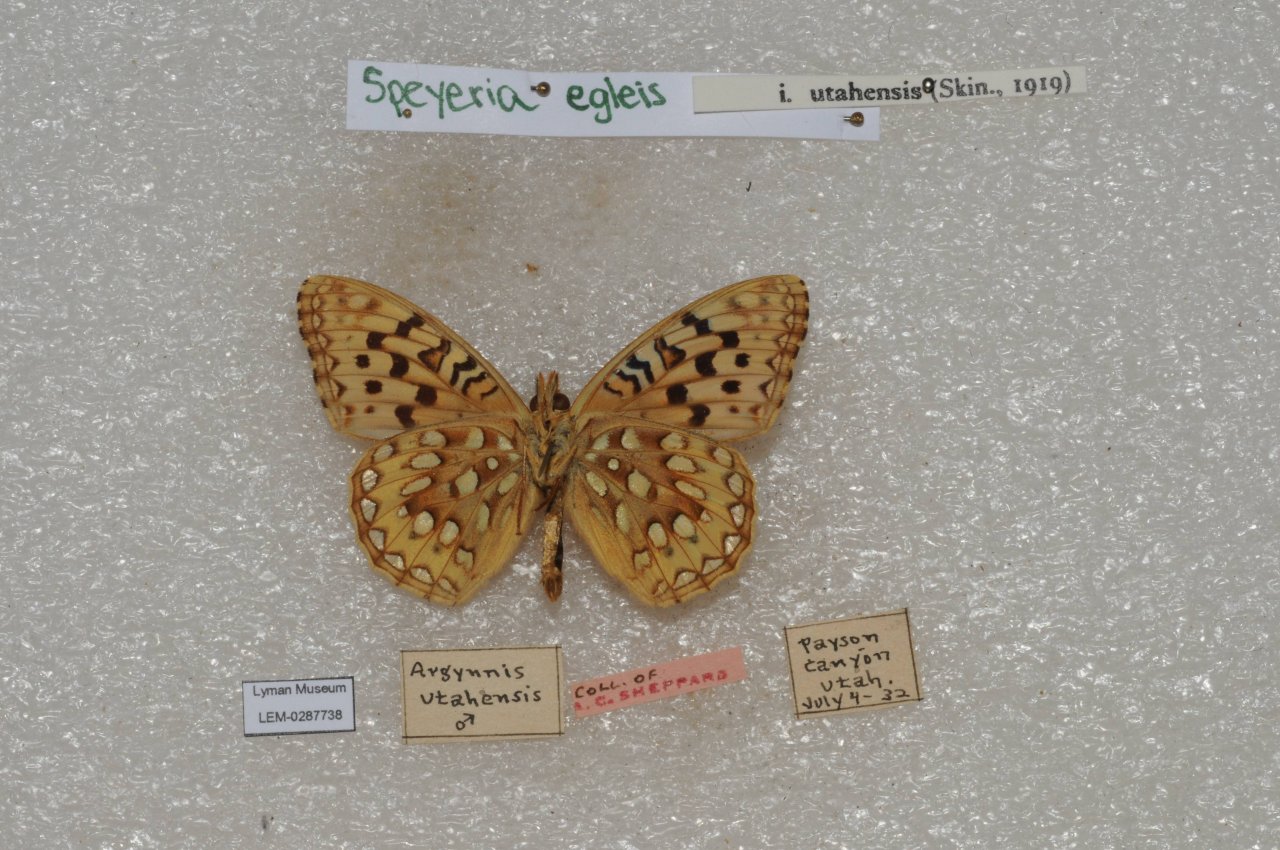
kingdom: Animalia
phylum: Arthropoda
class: Insecta
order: Lepidoptera
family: Nymphalidae
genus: Speyeria
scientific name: Speyeria egleis
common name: Great Basin Fritillary
